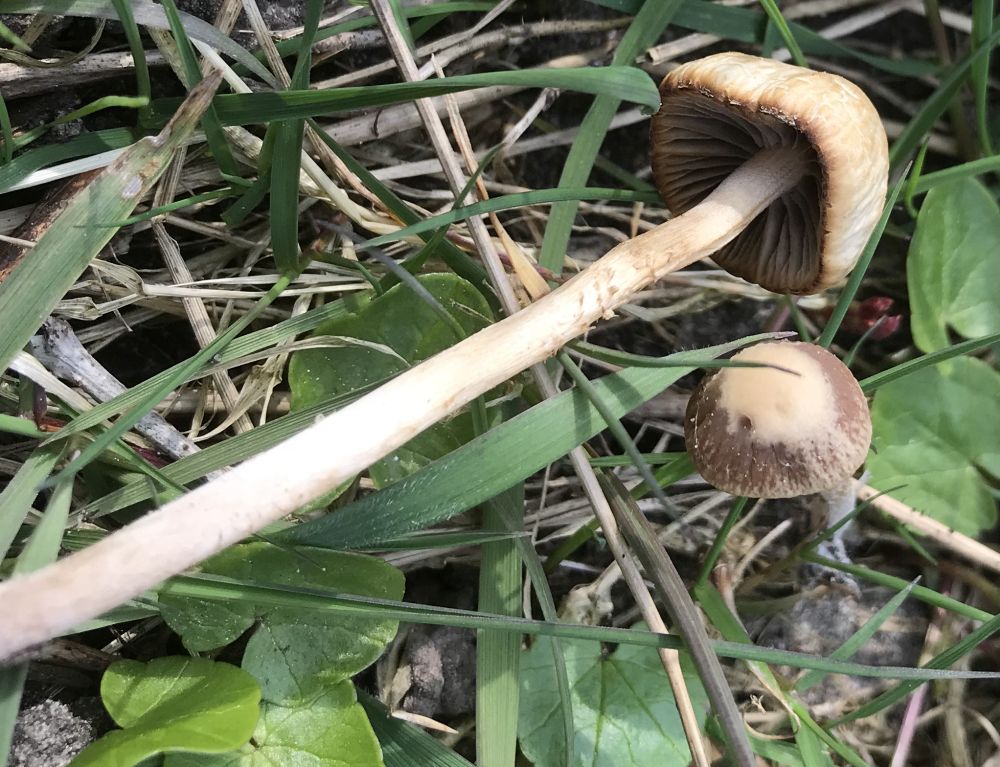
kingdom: Fungi
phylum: Basidiomycota
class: Agaricomycetes
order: Agaricales
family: Psathyrellaceae
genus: Psathyrella
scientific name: Psathyrella
